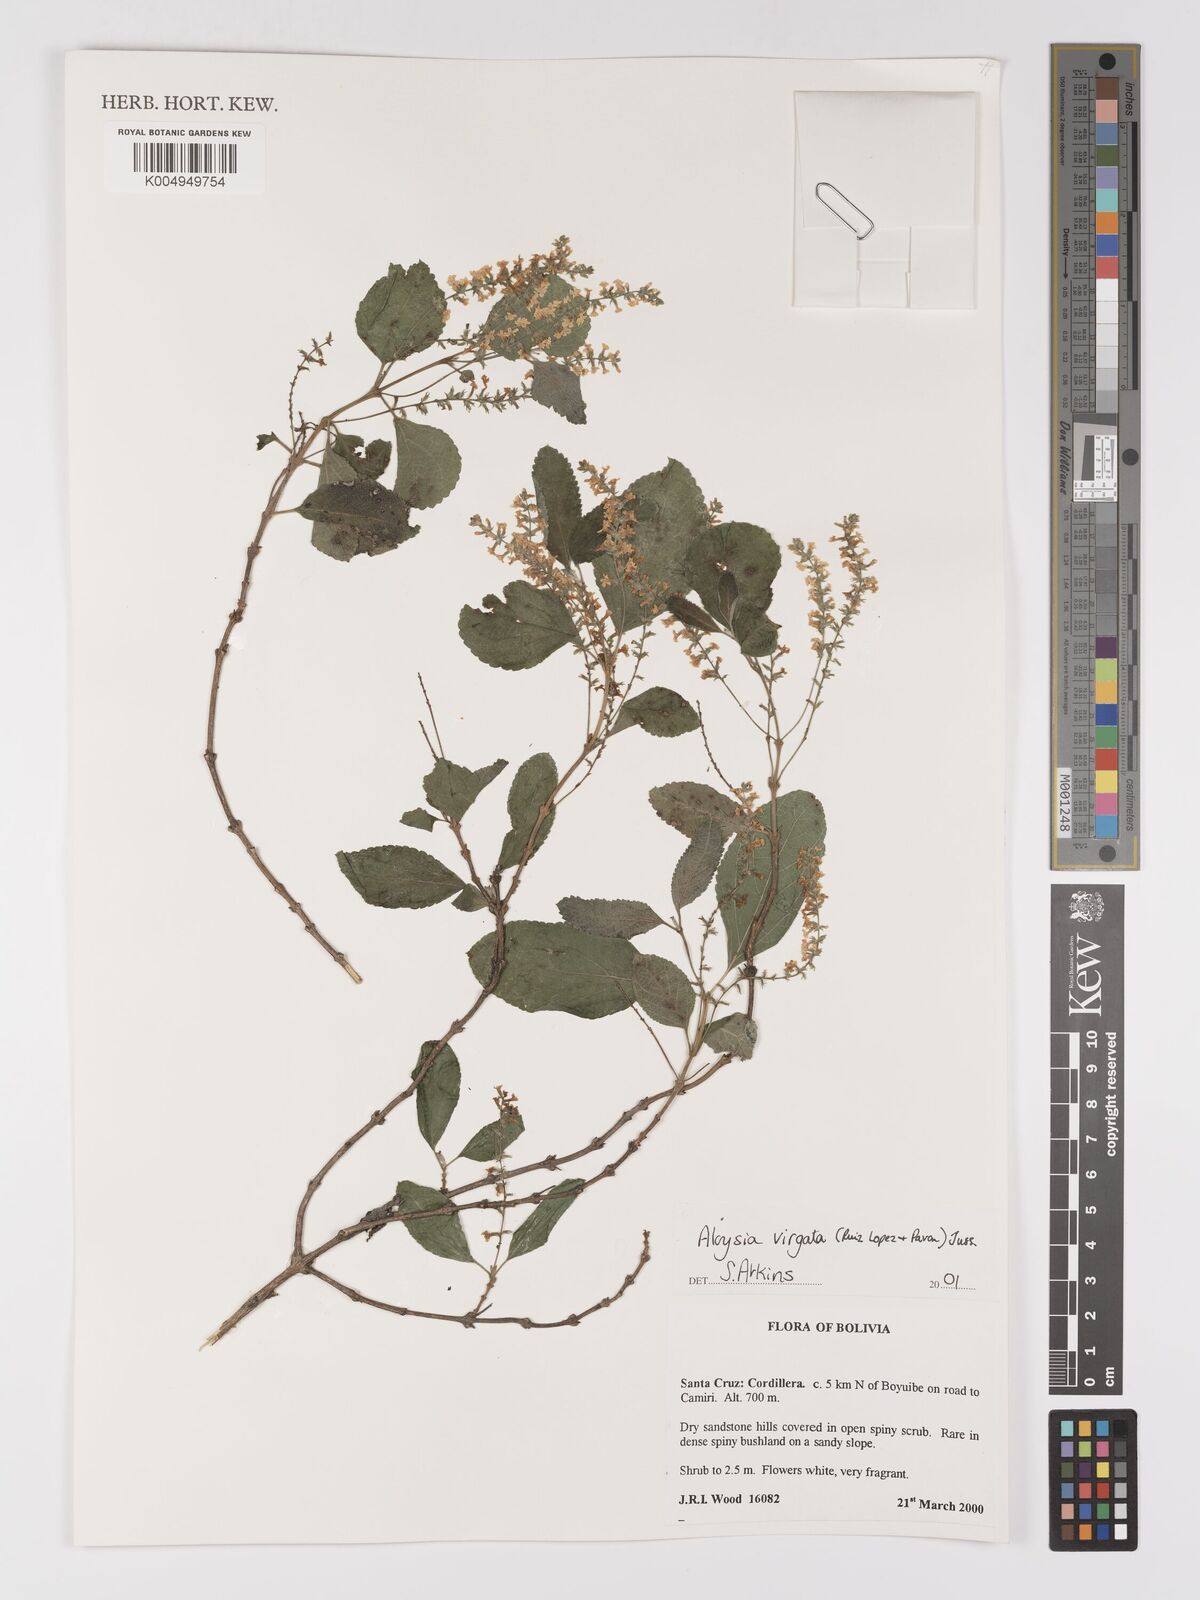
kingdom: Plantae
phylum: Tracheophyta
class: Magnoliopsida
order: Lamiales
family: Verbenaceae
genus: Aloysia
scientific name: Aloysia virgata
